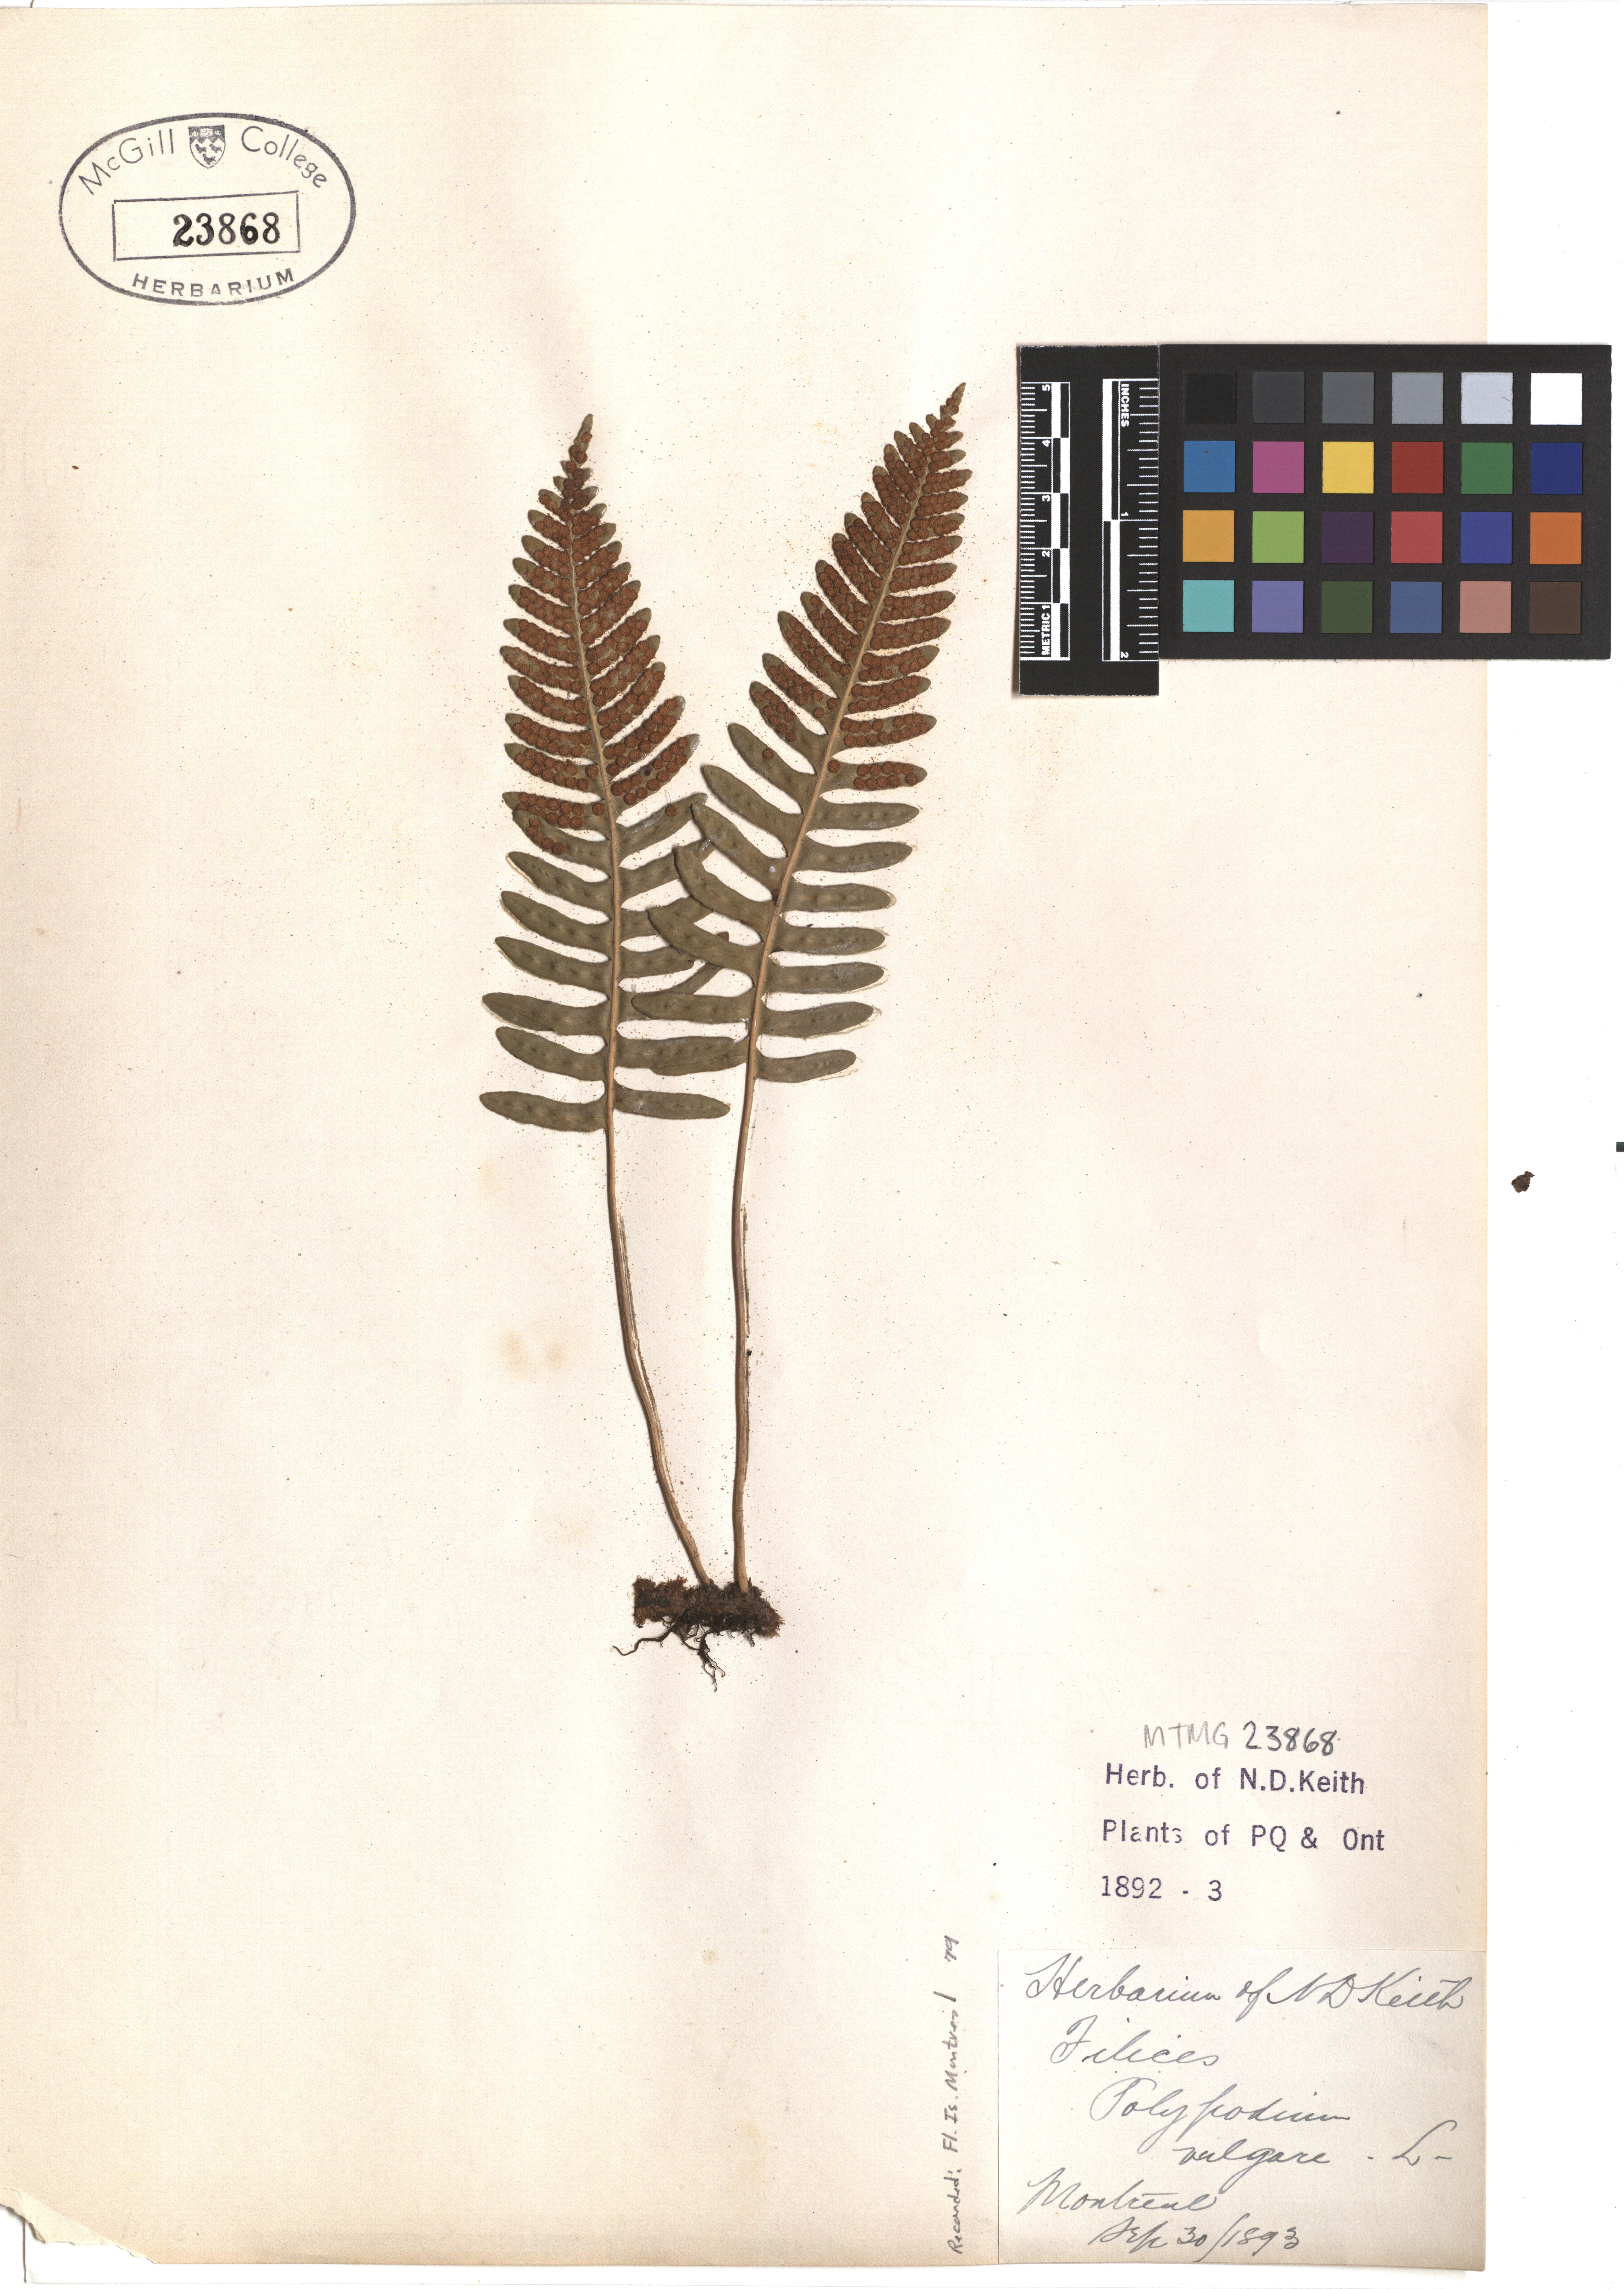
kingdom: Plantae
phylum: Tracheophyta
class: Polypodiopsida
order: Polypodiales
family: Polypodiaceae
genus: Polypodium
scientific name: Polypodium vulgare
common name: Common polypody
